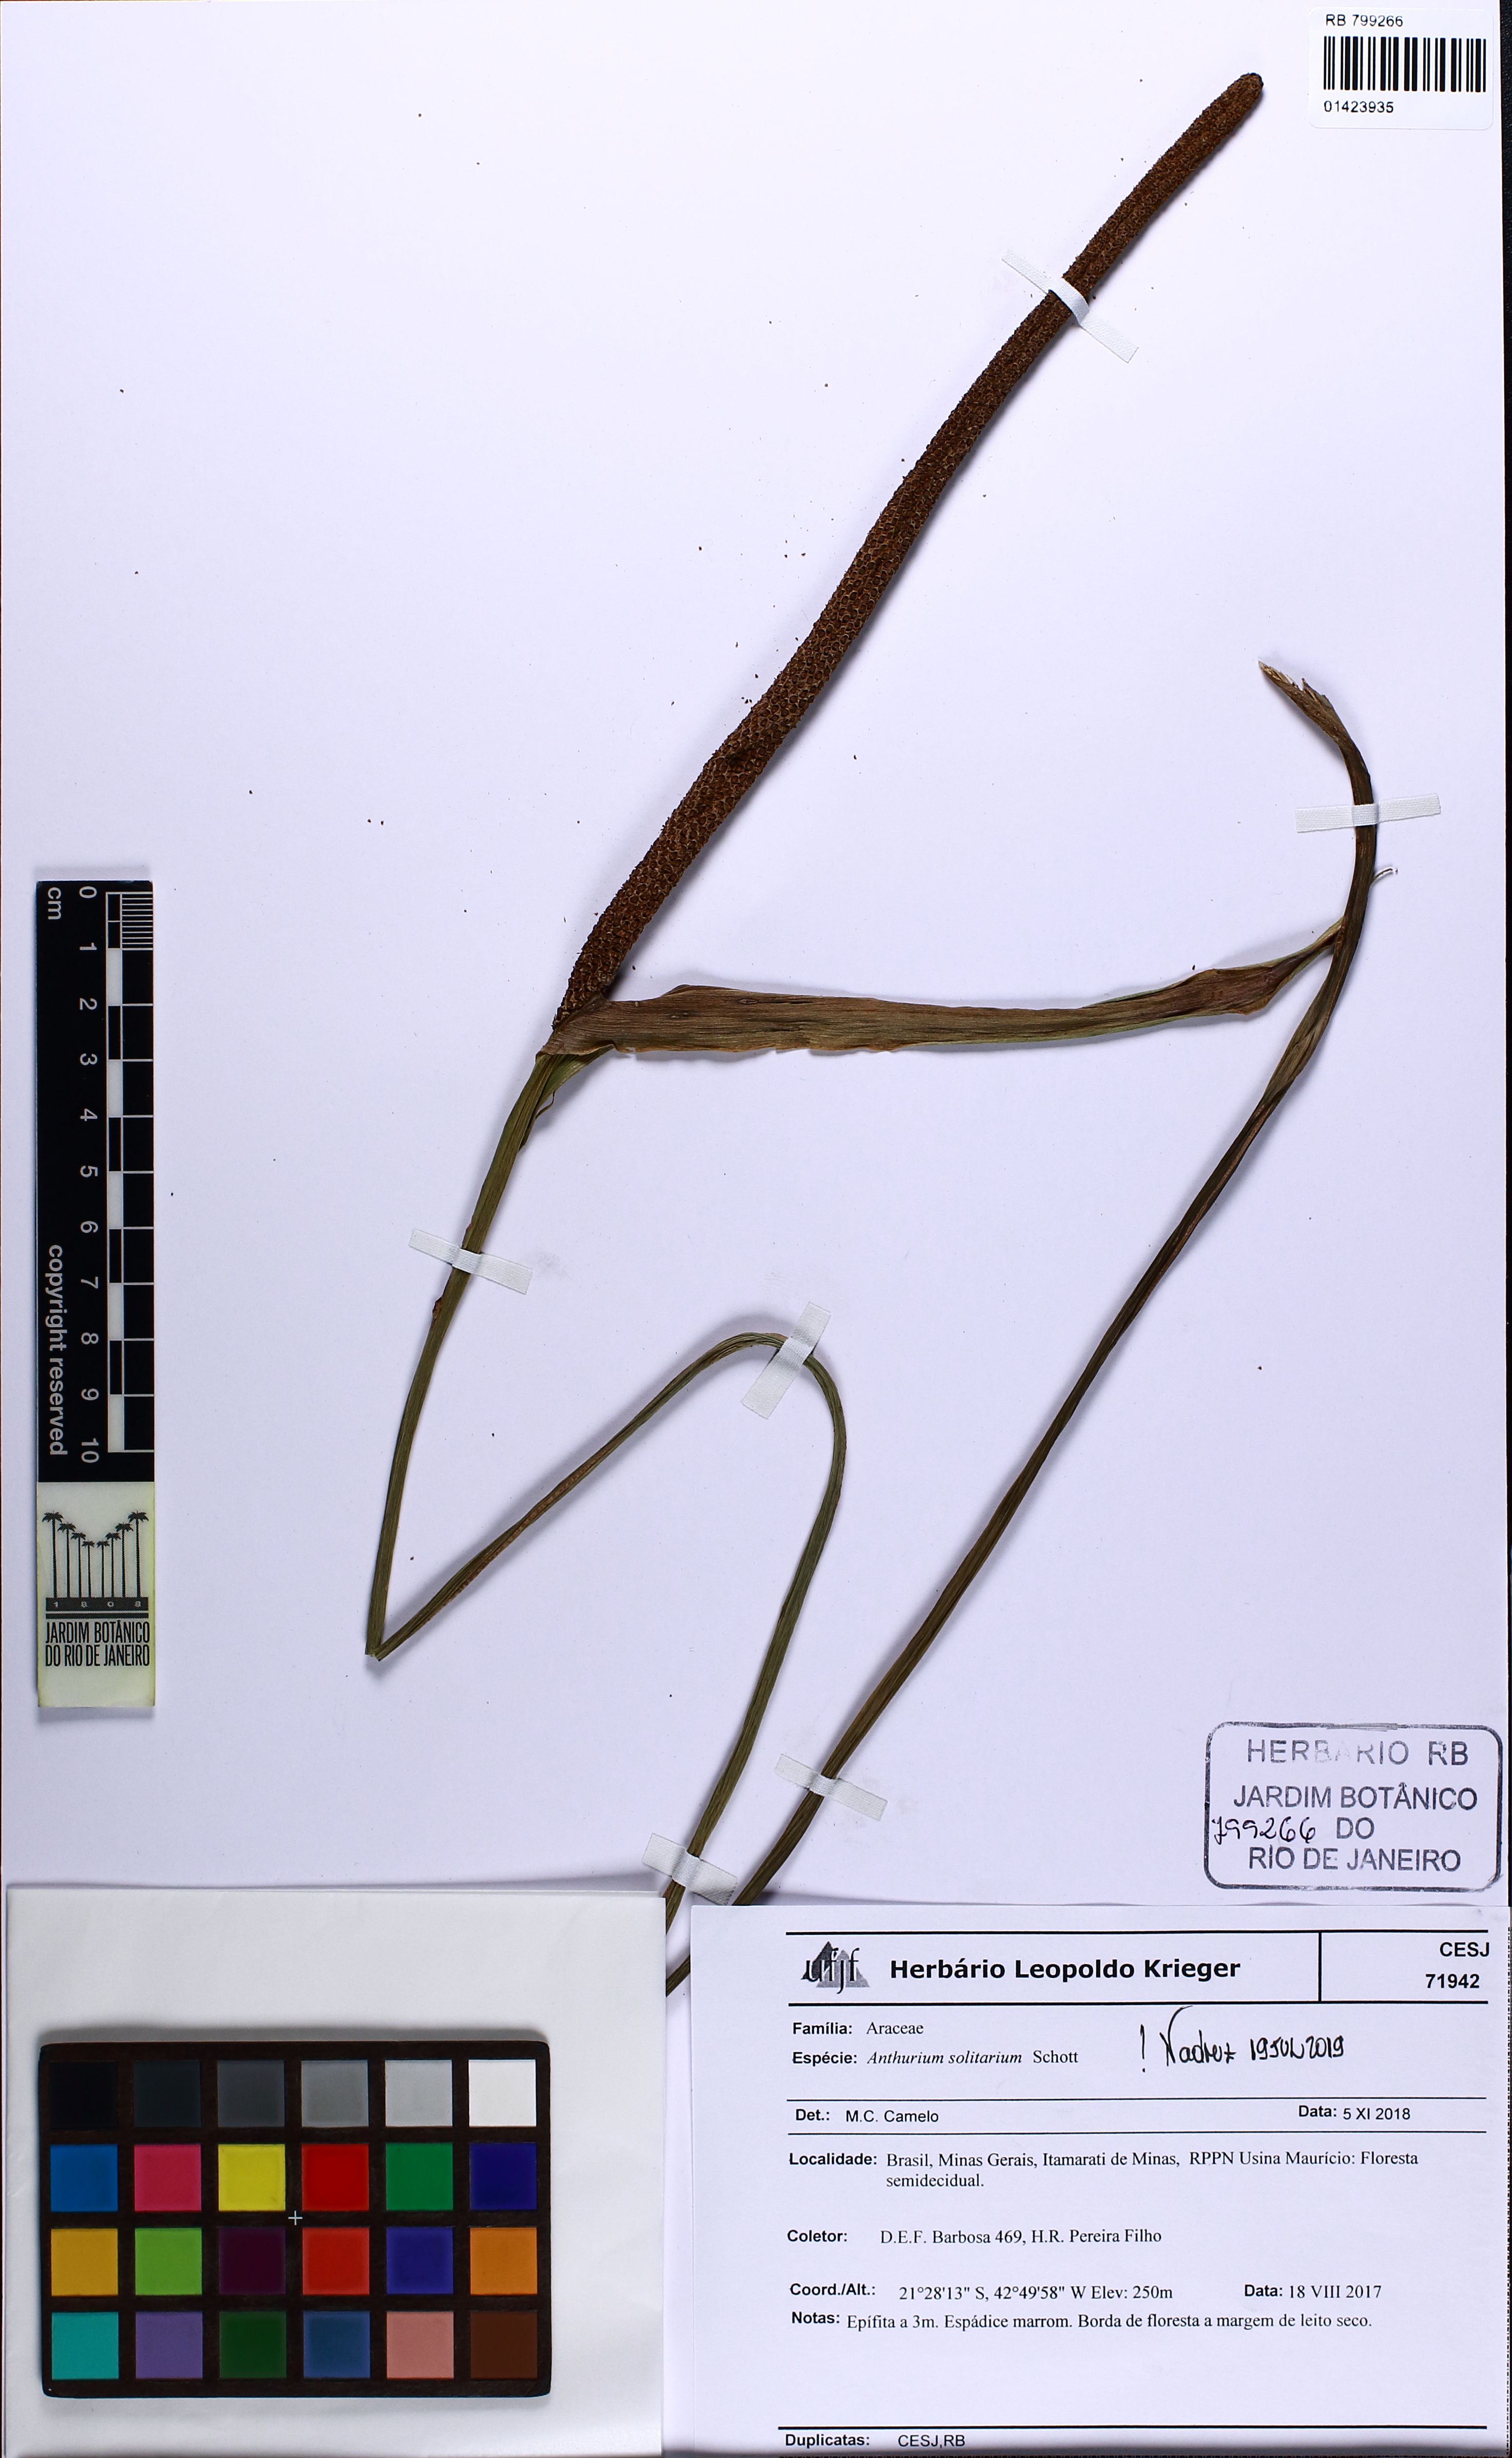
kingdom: Plantae
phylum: Tracheophyta
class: Liliopsida
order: Alismatales
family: Araceae
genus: Anthurium
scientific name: Anthurium solitarium
